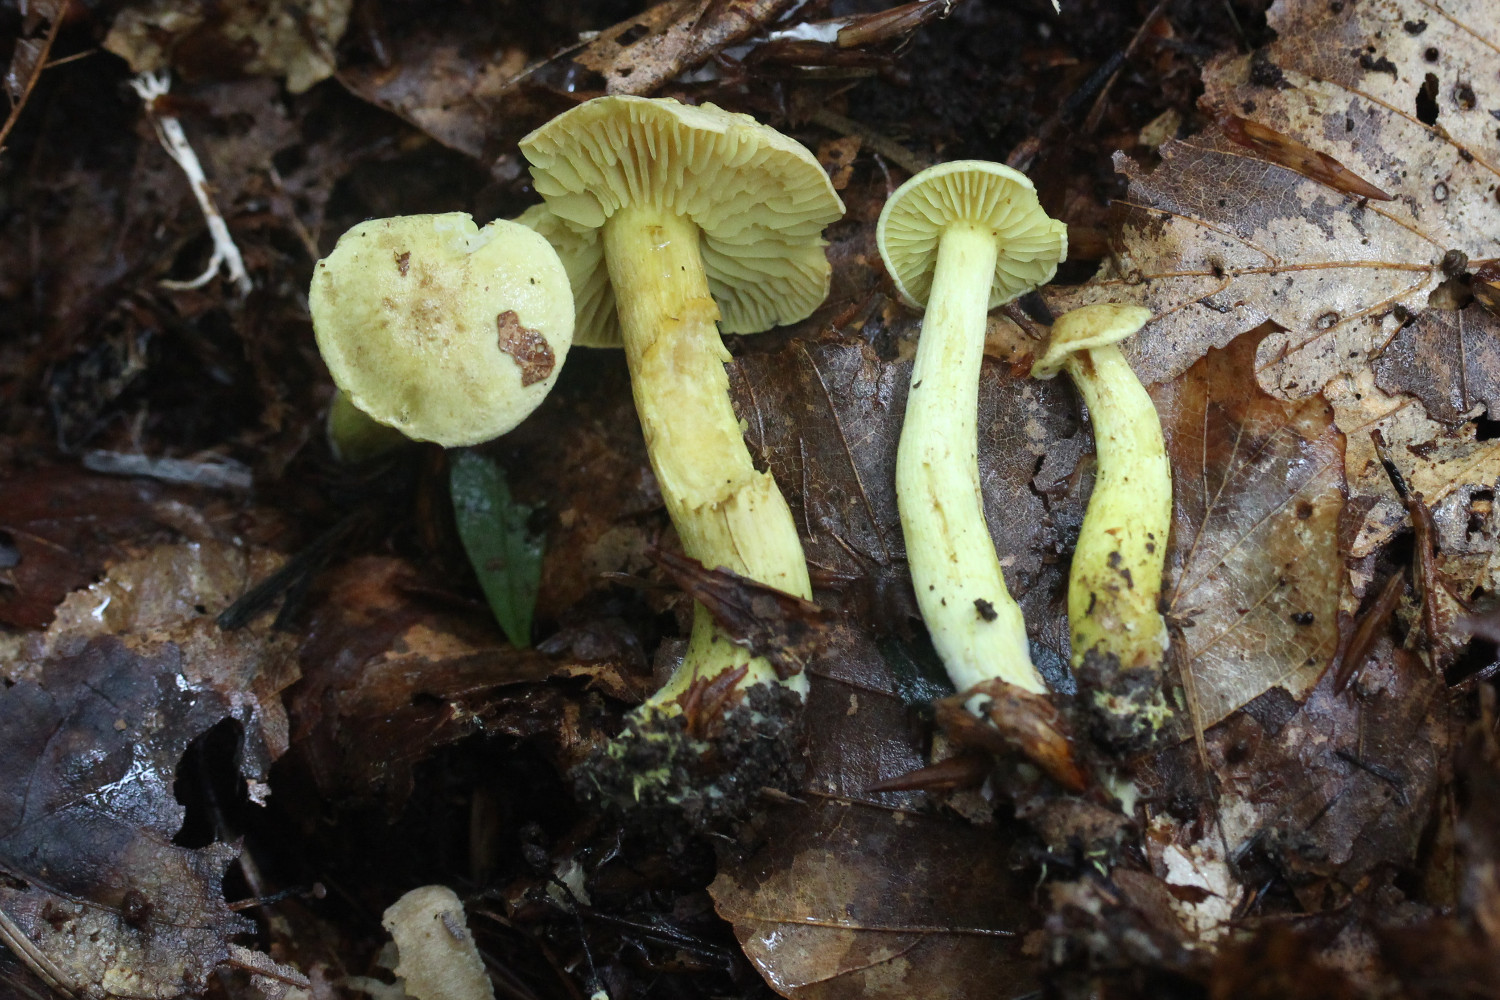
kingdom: Fungi
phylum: Basidiomycota
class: Agaricomycetes
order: Agaricales
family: Tricholomataceae
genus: Tricholoma
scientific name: Tricholoma sulphureum
